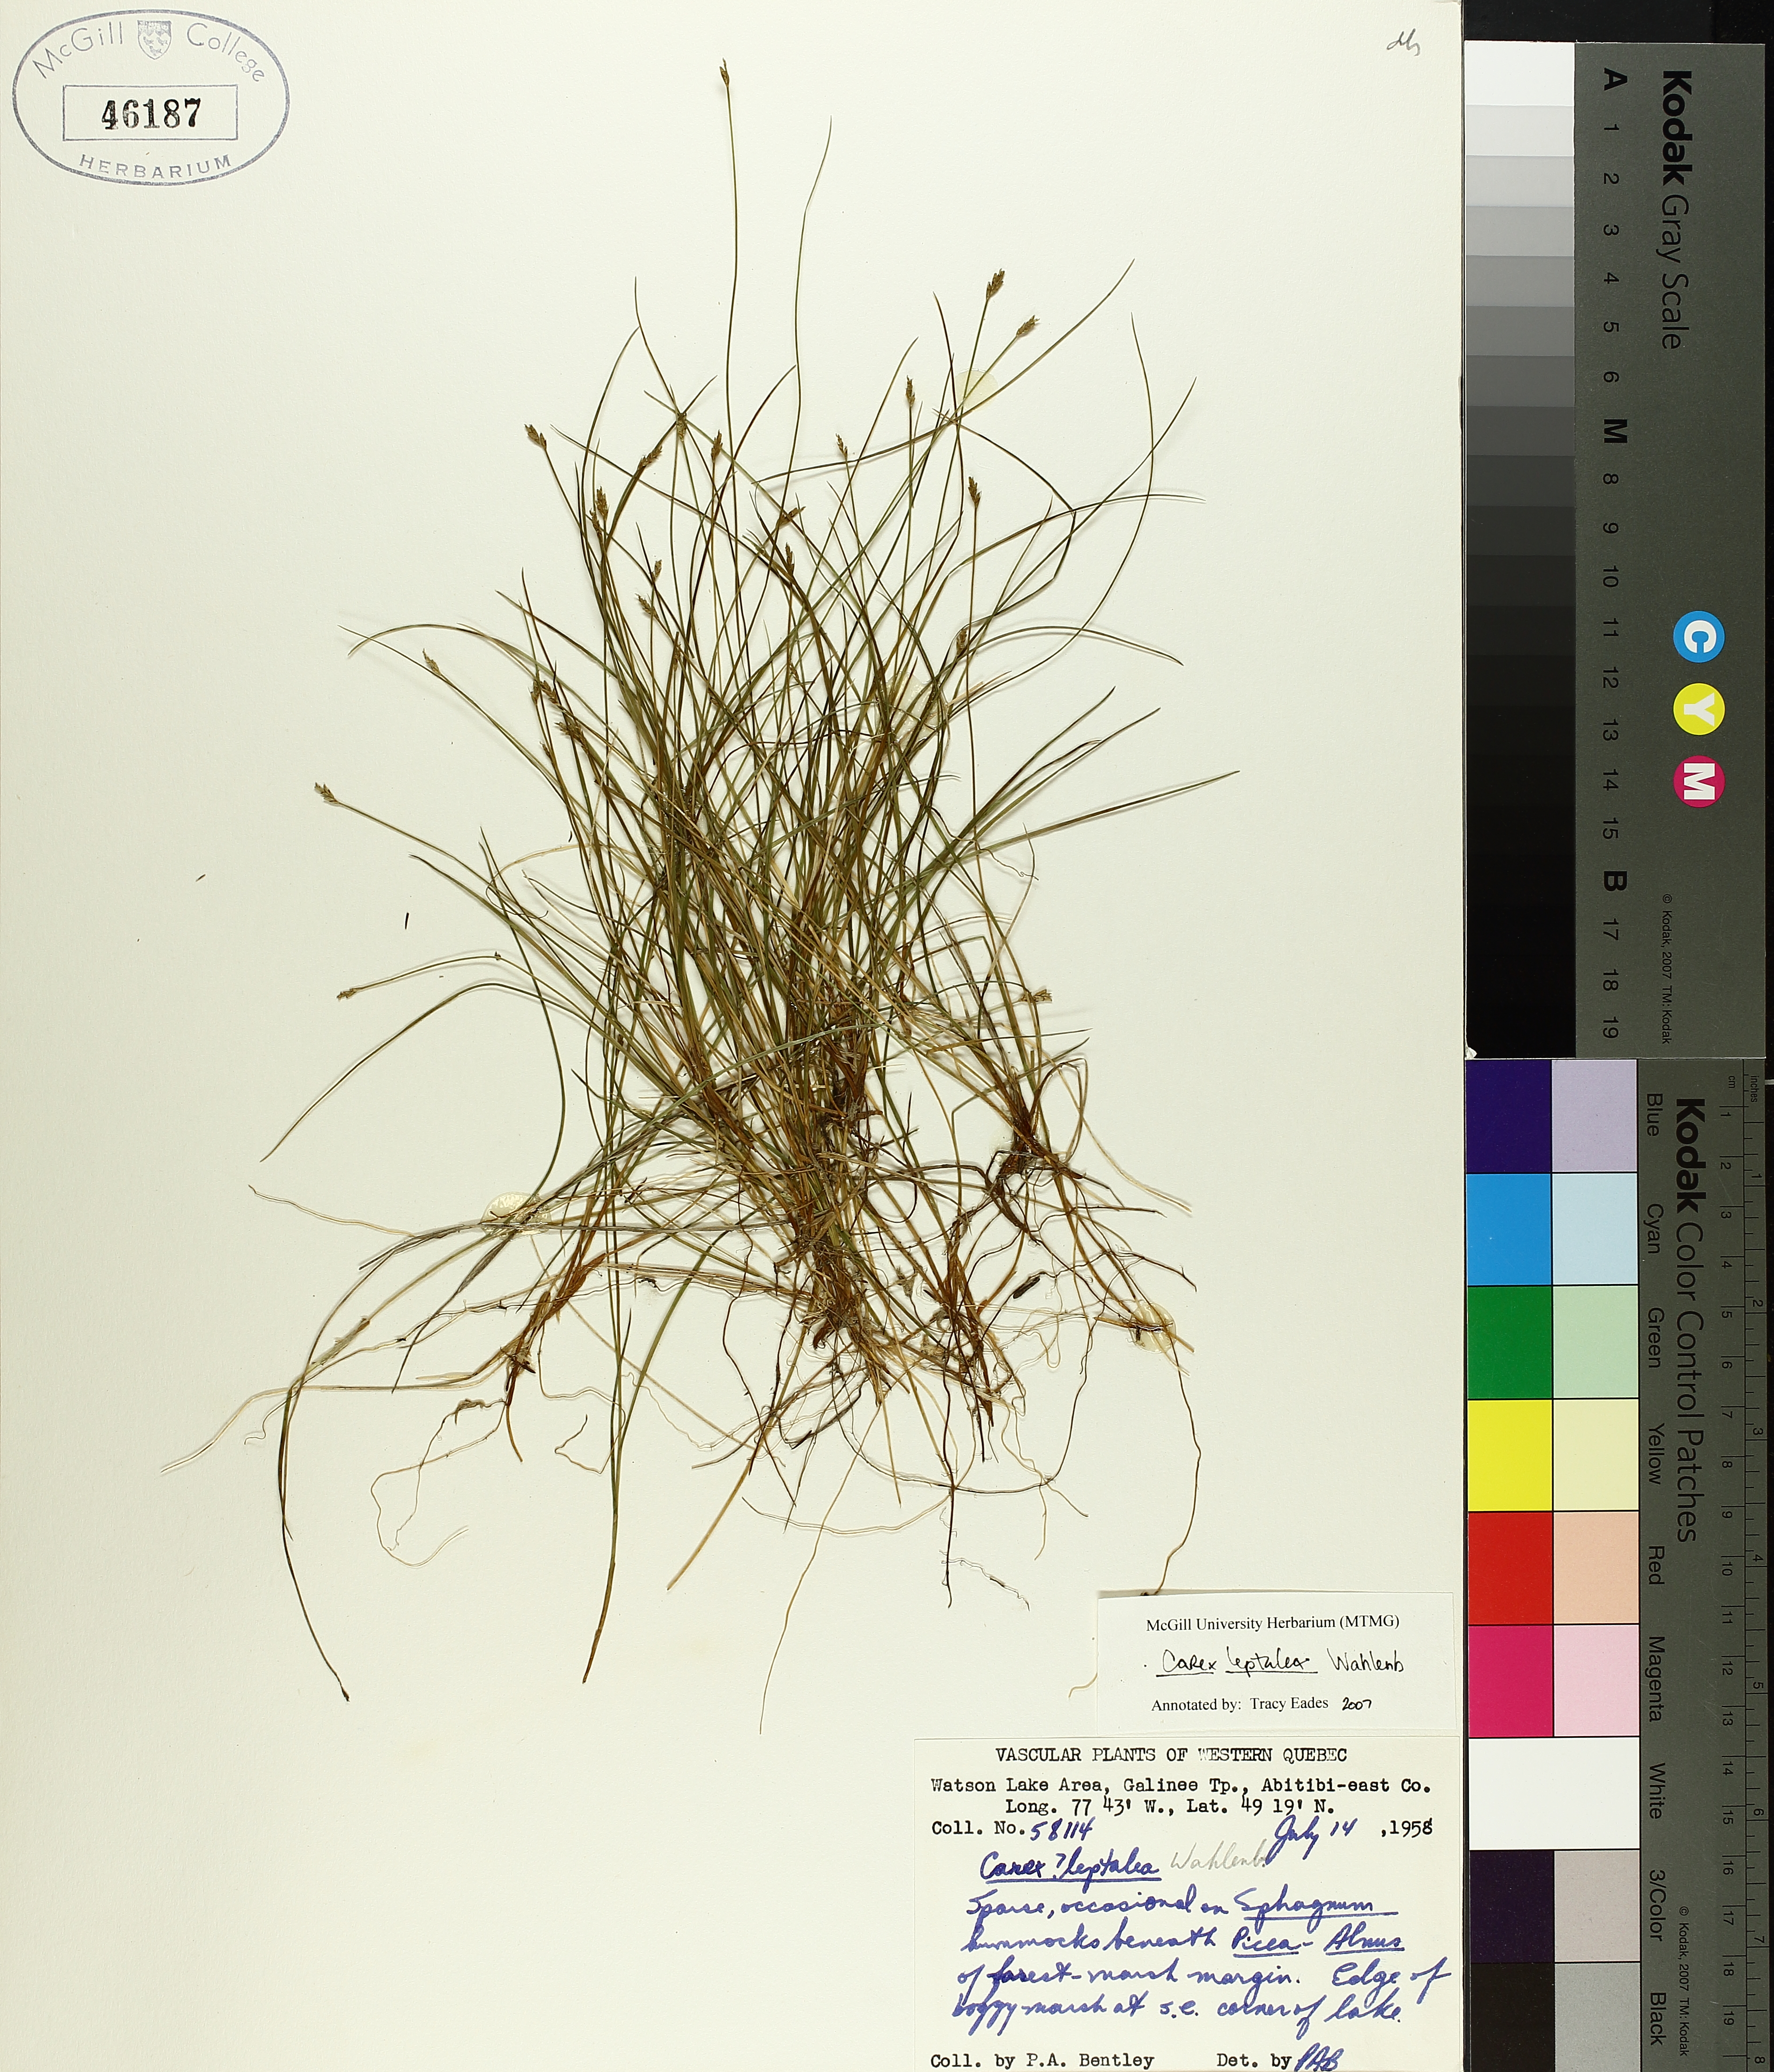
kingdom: Plantae
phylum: Tracheophyta
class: Liliopsida
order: Poales
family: Cyperaceae
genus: Carex
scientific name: Carex leptalea
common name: Bristly-stalked sedge
